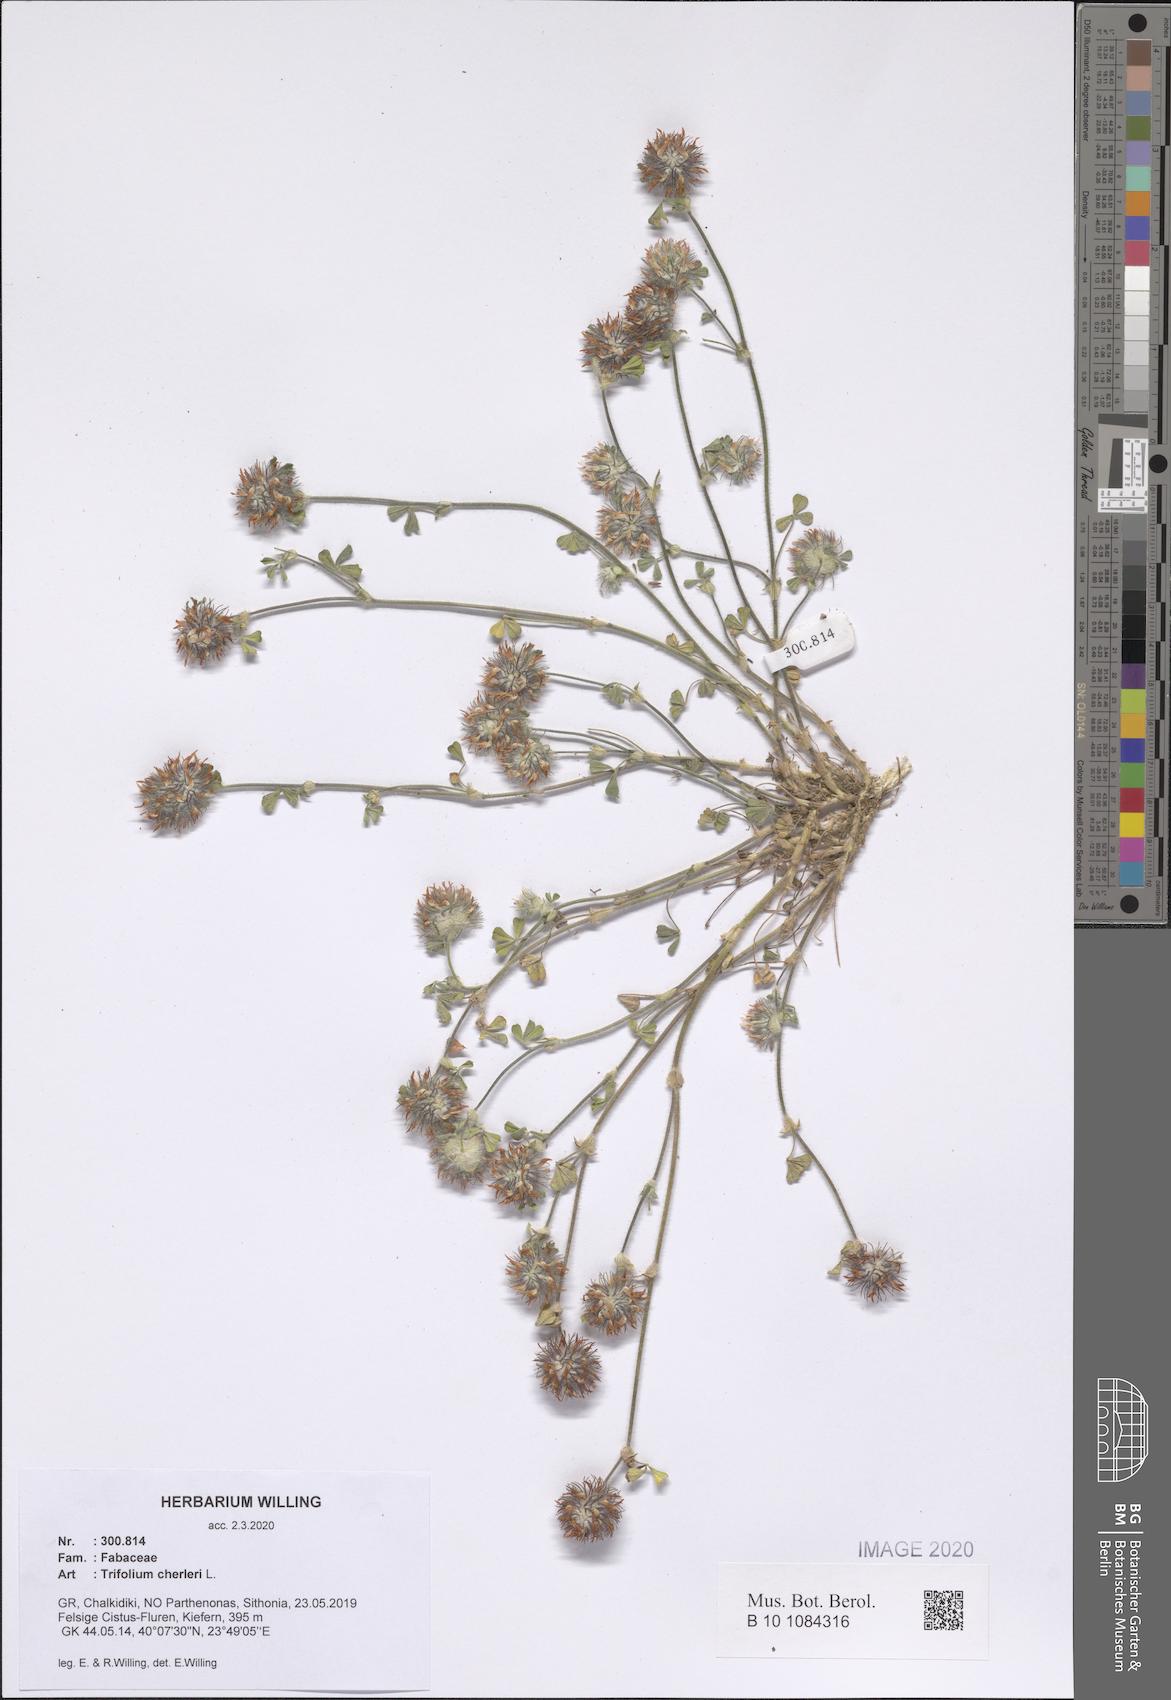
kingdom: Plantae
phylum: Tracheophyta
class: Magnoliopsida
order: Fabales
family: Fabaceae
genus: Trifolium
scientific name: Trifolium cherleri
